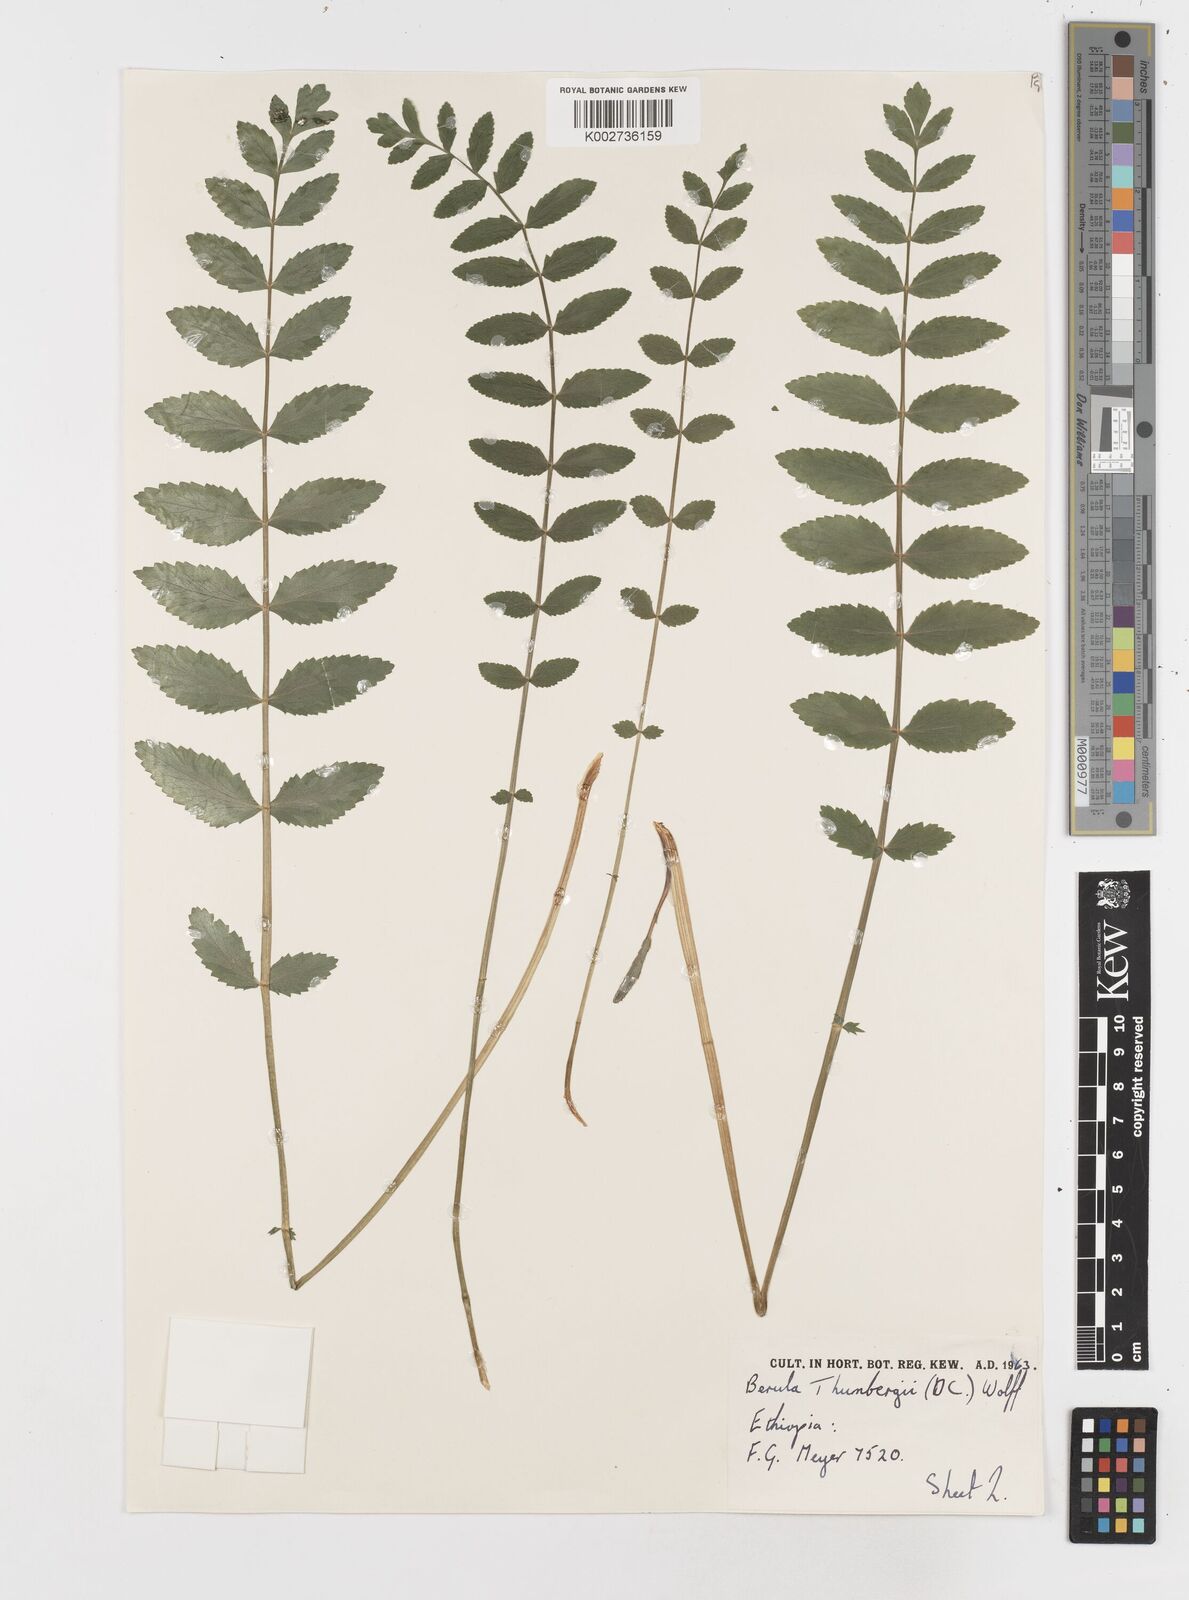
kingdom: Plantae
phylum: Tracheophyta
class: Magnoliopsida
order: Apiales
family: Apiaceae
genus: Berula
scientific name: Berula erecta
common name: Lesser water-parsnip
